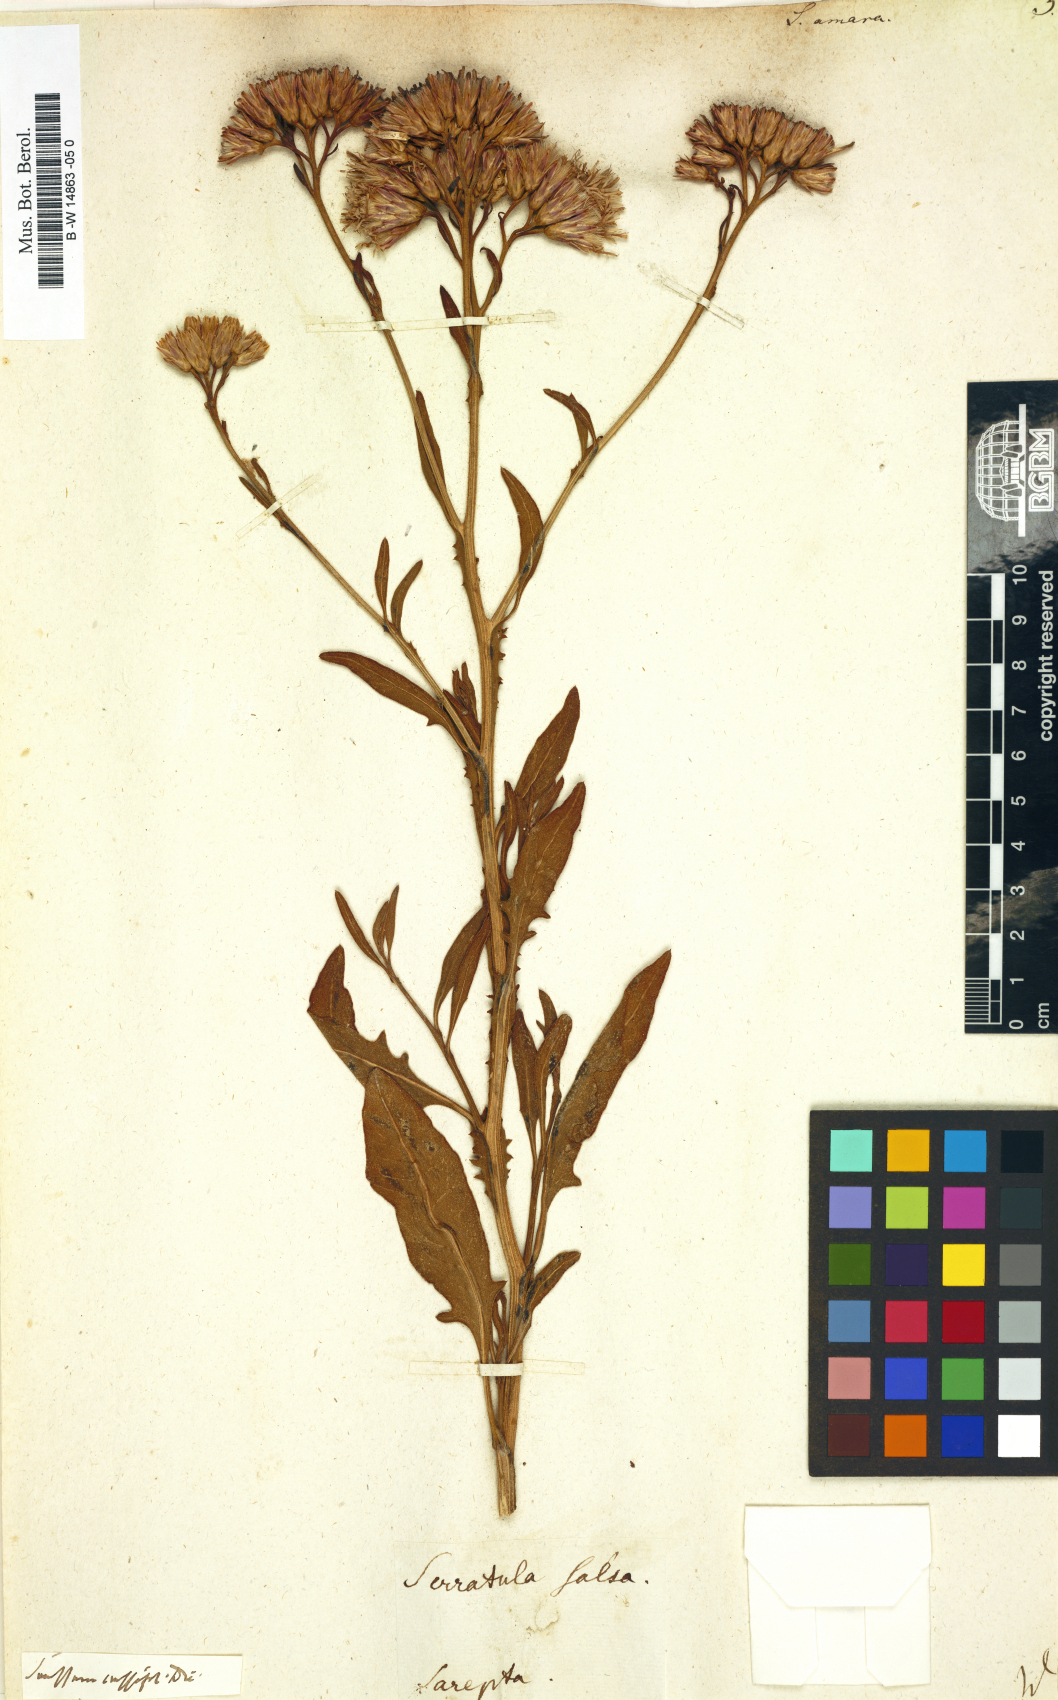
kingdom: Plantae
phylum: Tracheophyta
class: Magnoliopsida
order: Asterales
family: Asteraceae
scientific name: Asteraceae
